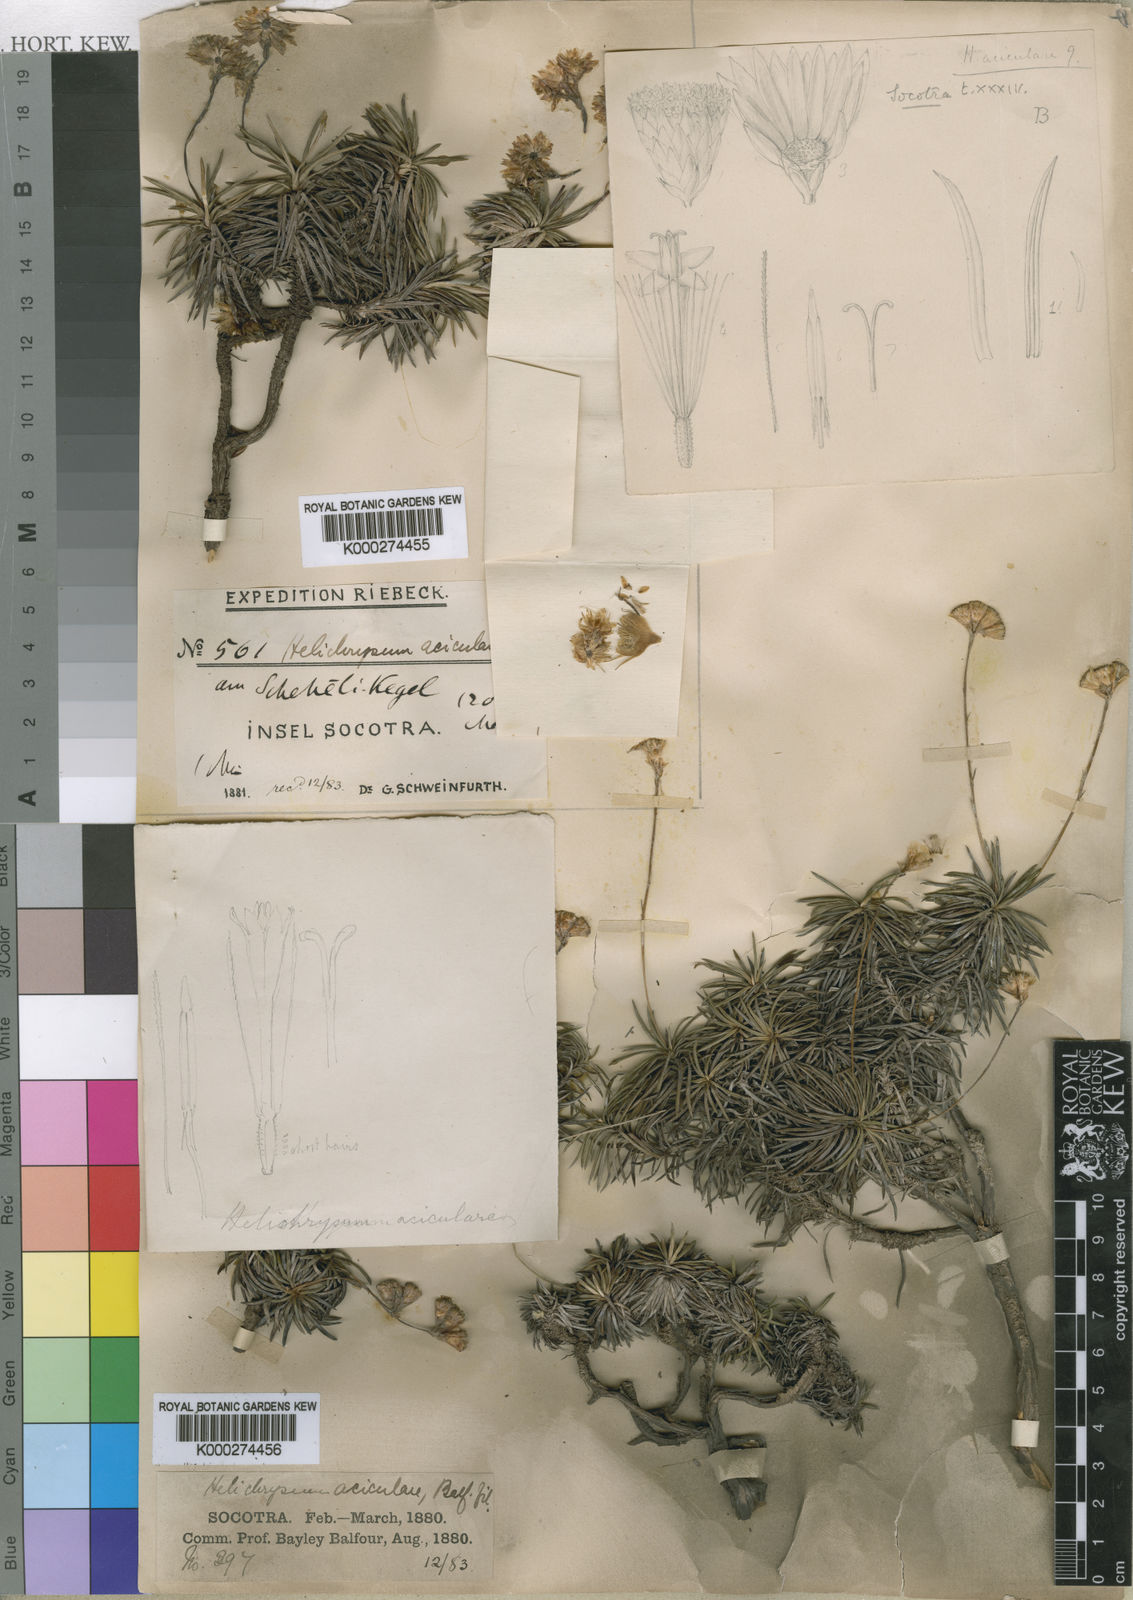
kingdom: Plantae
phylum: Tracheophyta
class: Magnoliopsida
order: Asterales
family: Asteraceae
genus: Libinhania
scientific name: Libinhania acicularis
